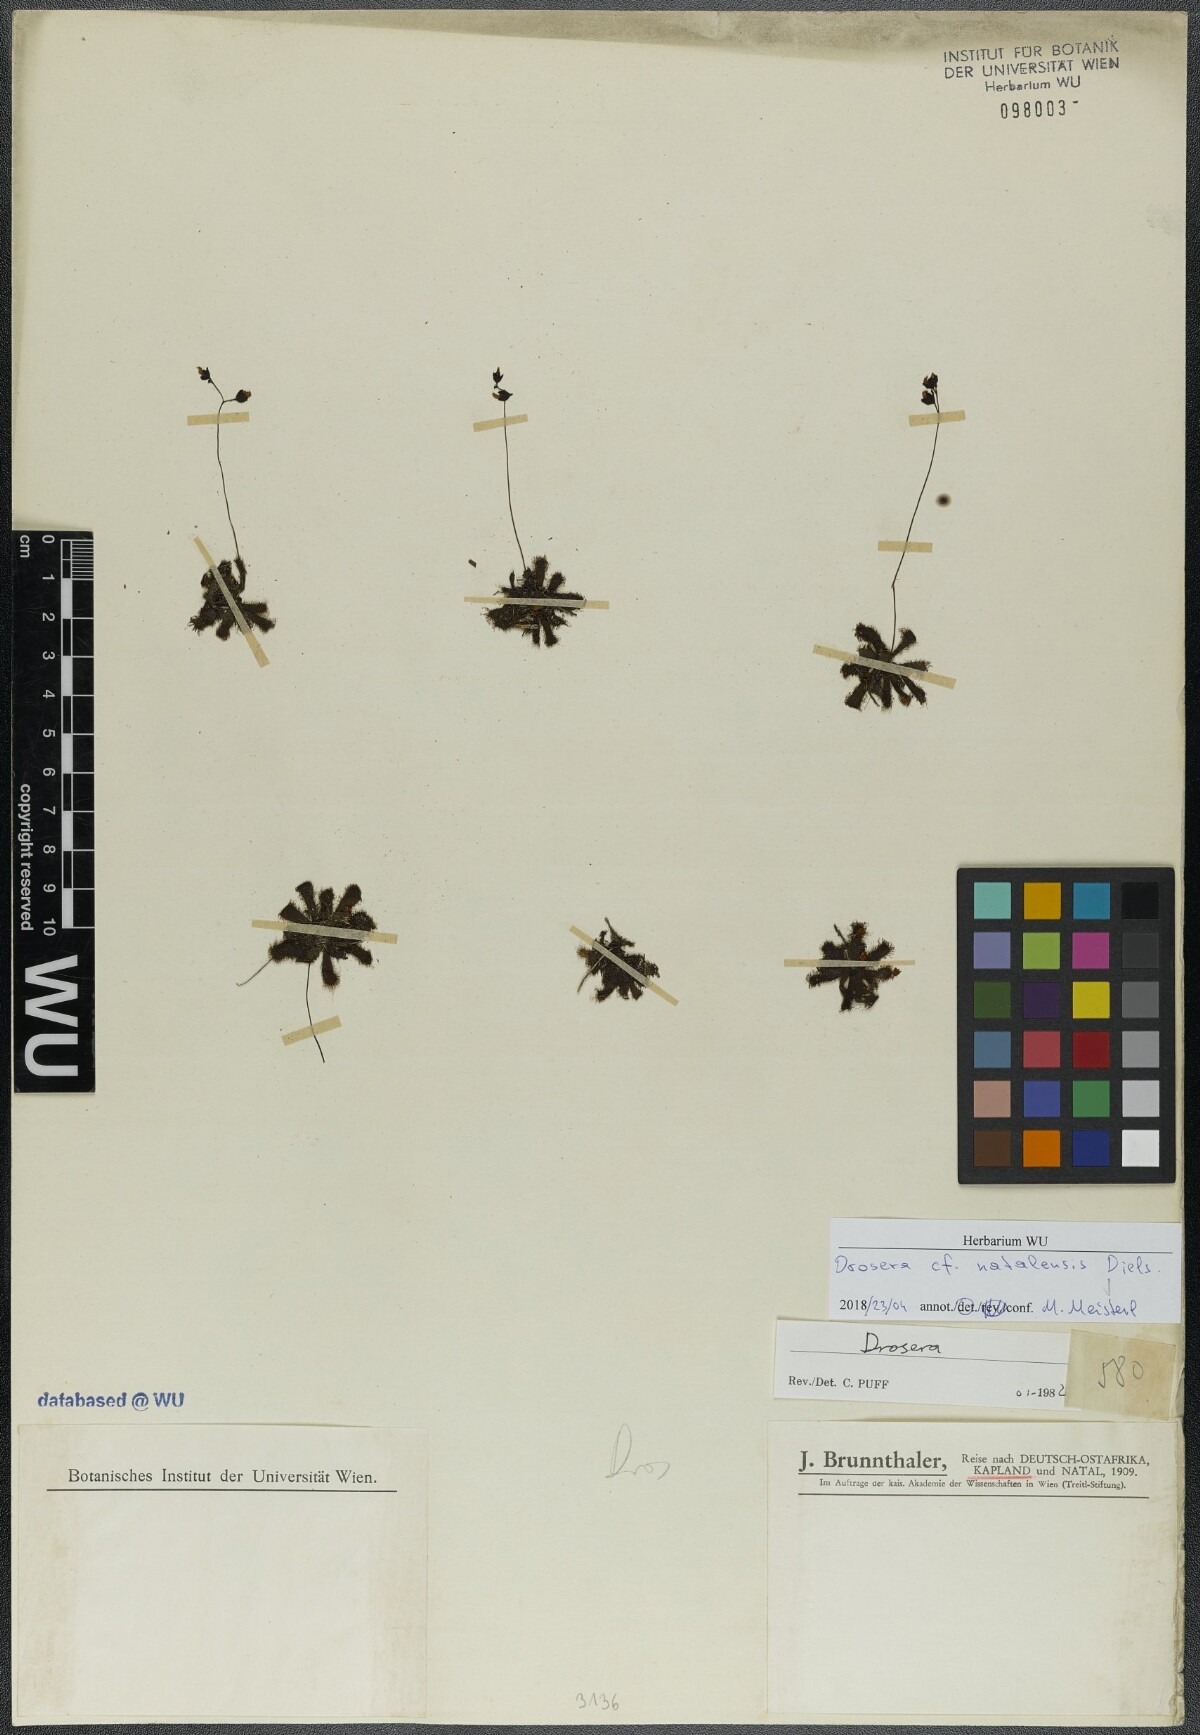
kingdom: Plantae
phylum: Tracheophyta
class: Magnoliopsida
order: Caryophyllales
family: Droseraceae
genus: Drosera
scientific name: Drosera natalensis
